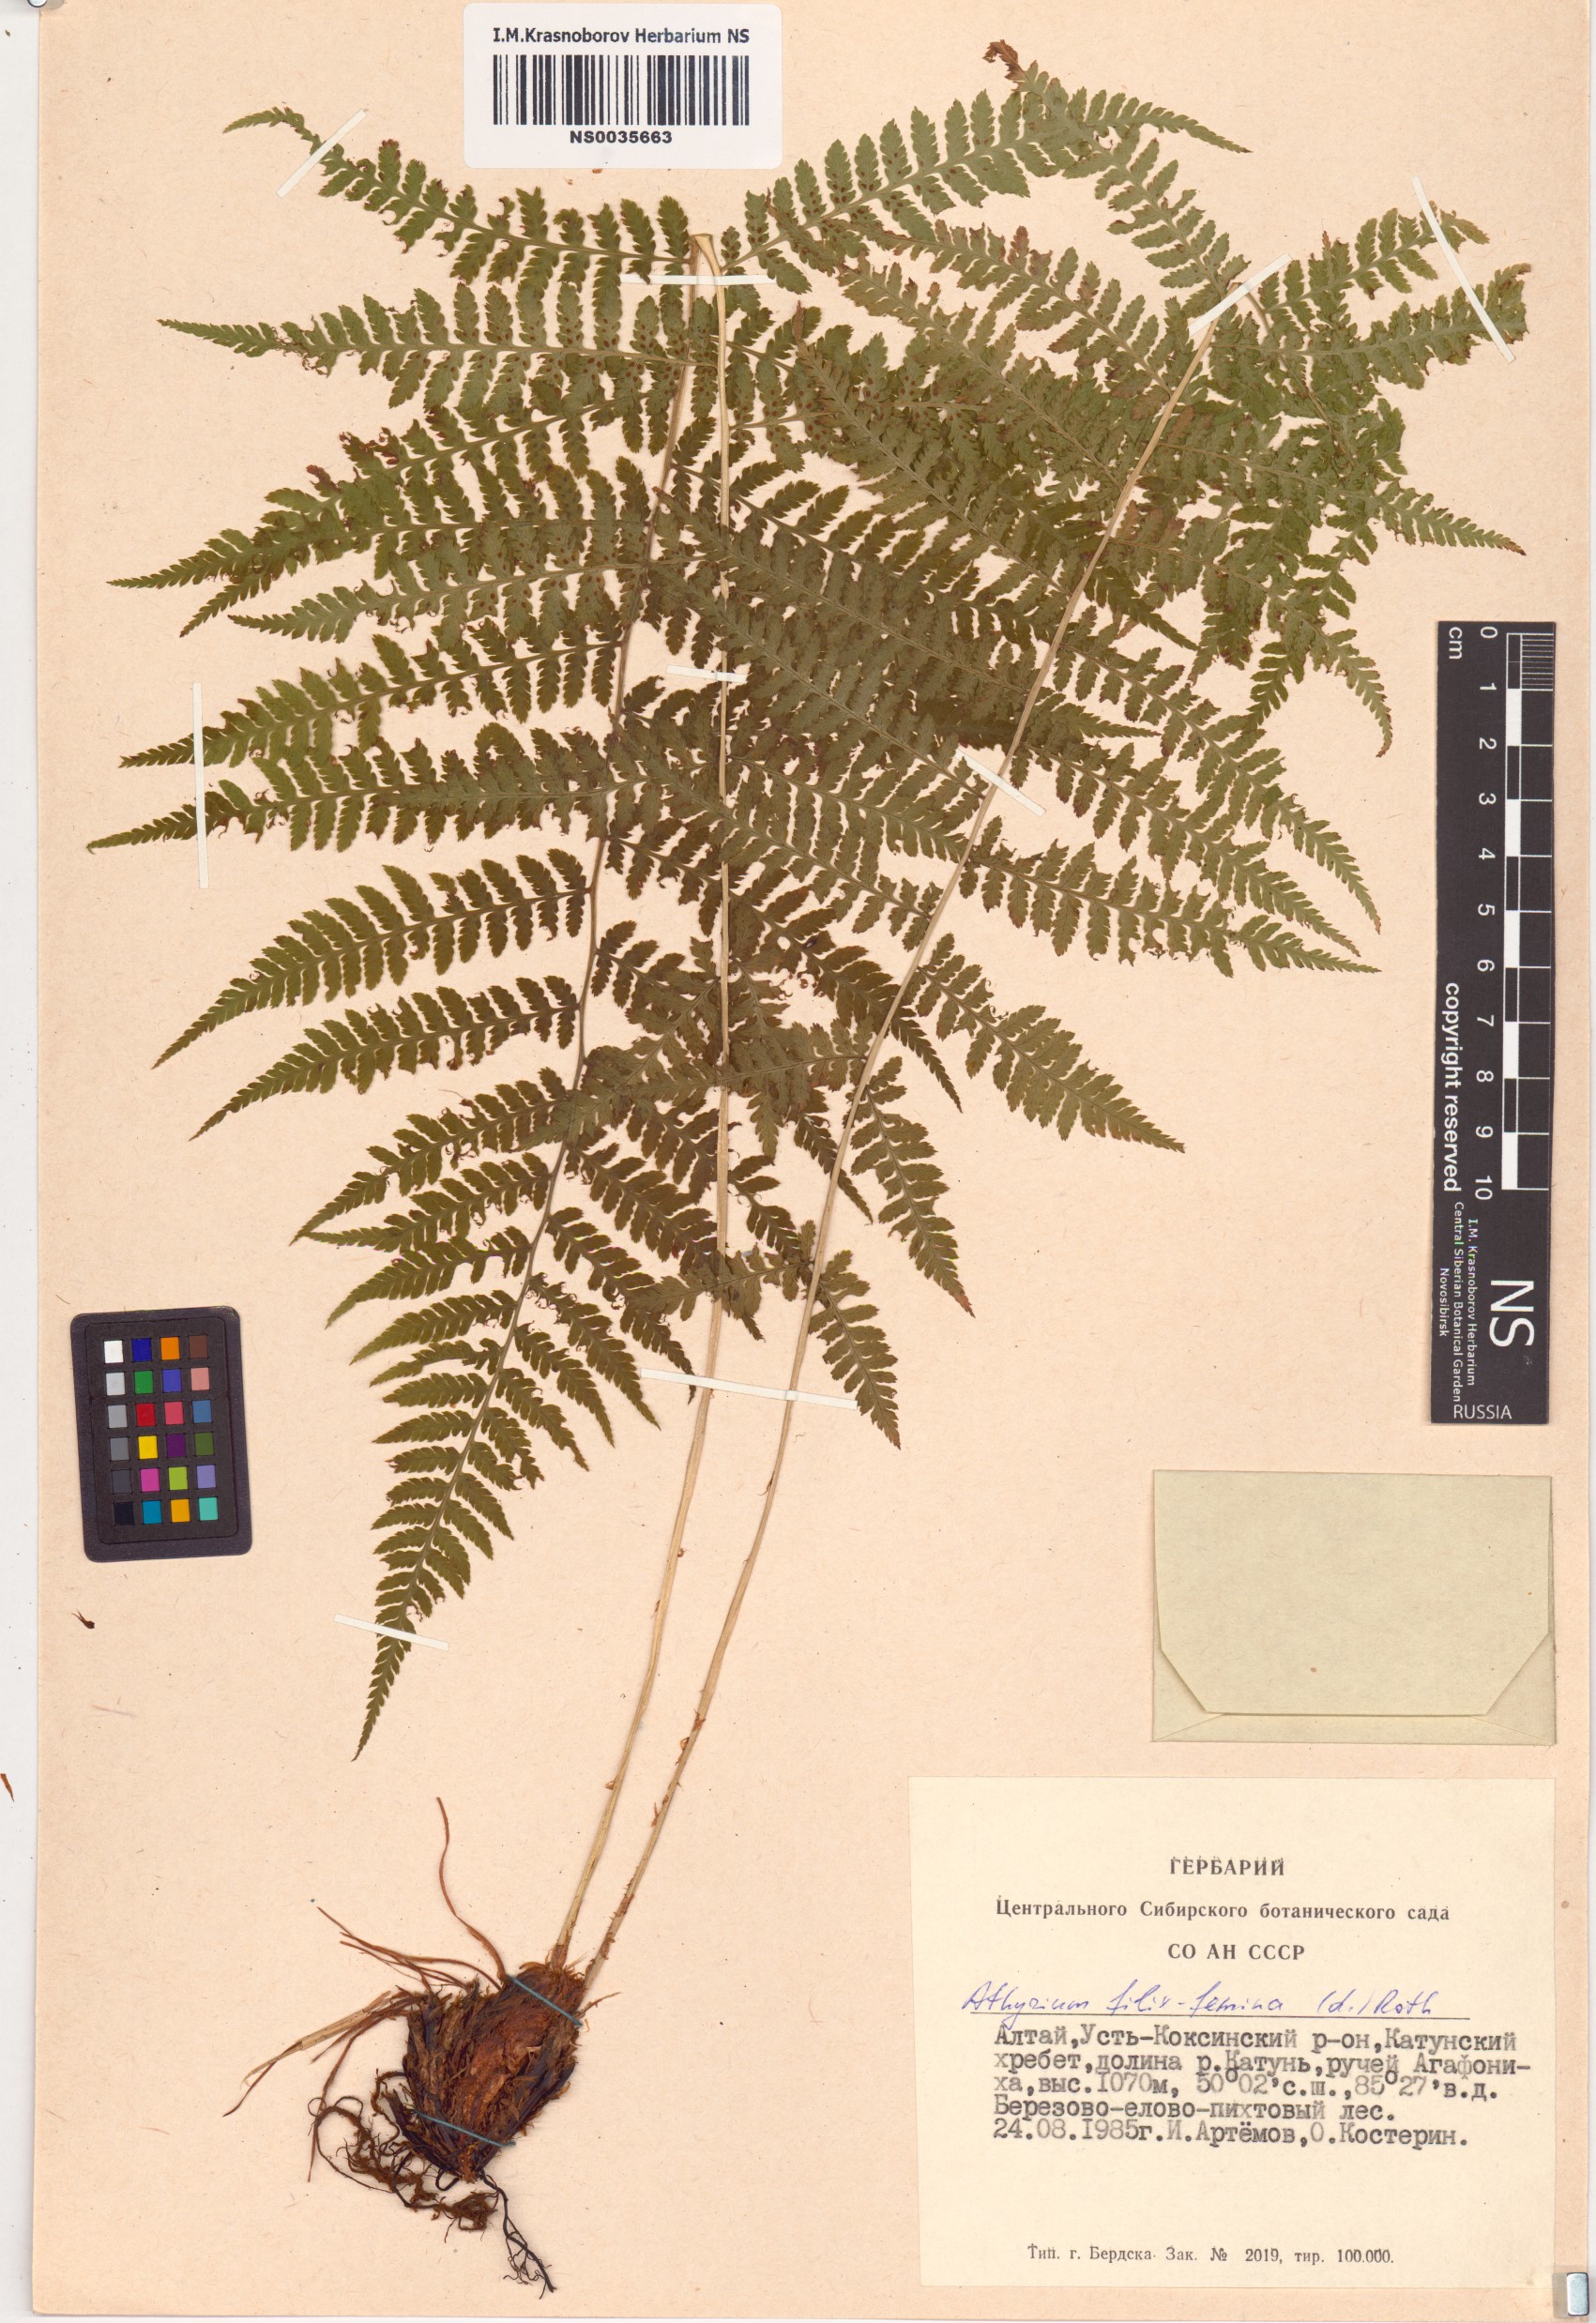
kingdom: Plantae
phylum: Tracheophyta
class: Polypodiopsida
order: Polypodiales
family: Athyriaceae
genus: Athyrium
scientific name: Athyrium filix-femina
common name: Lady fern
